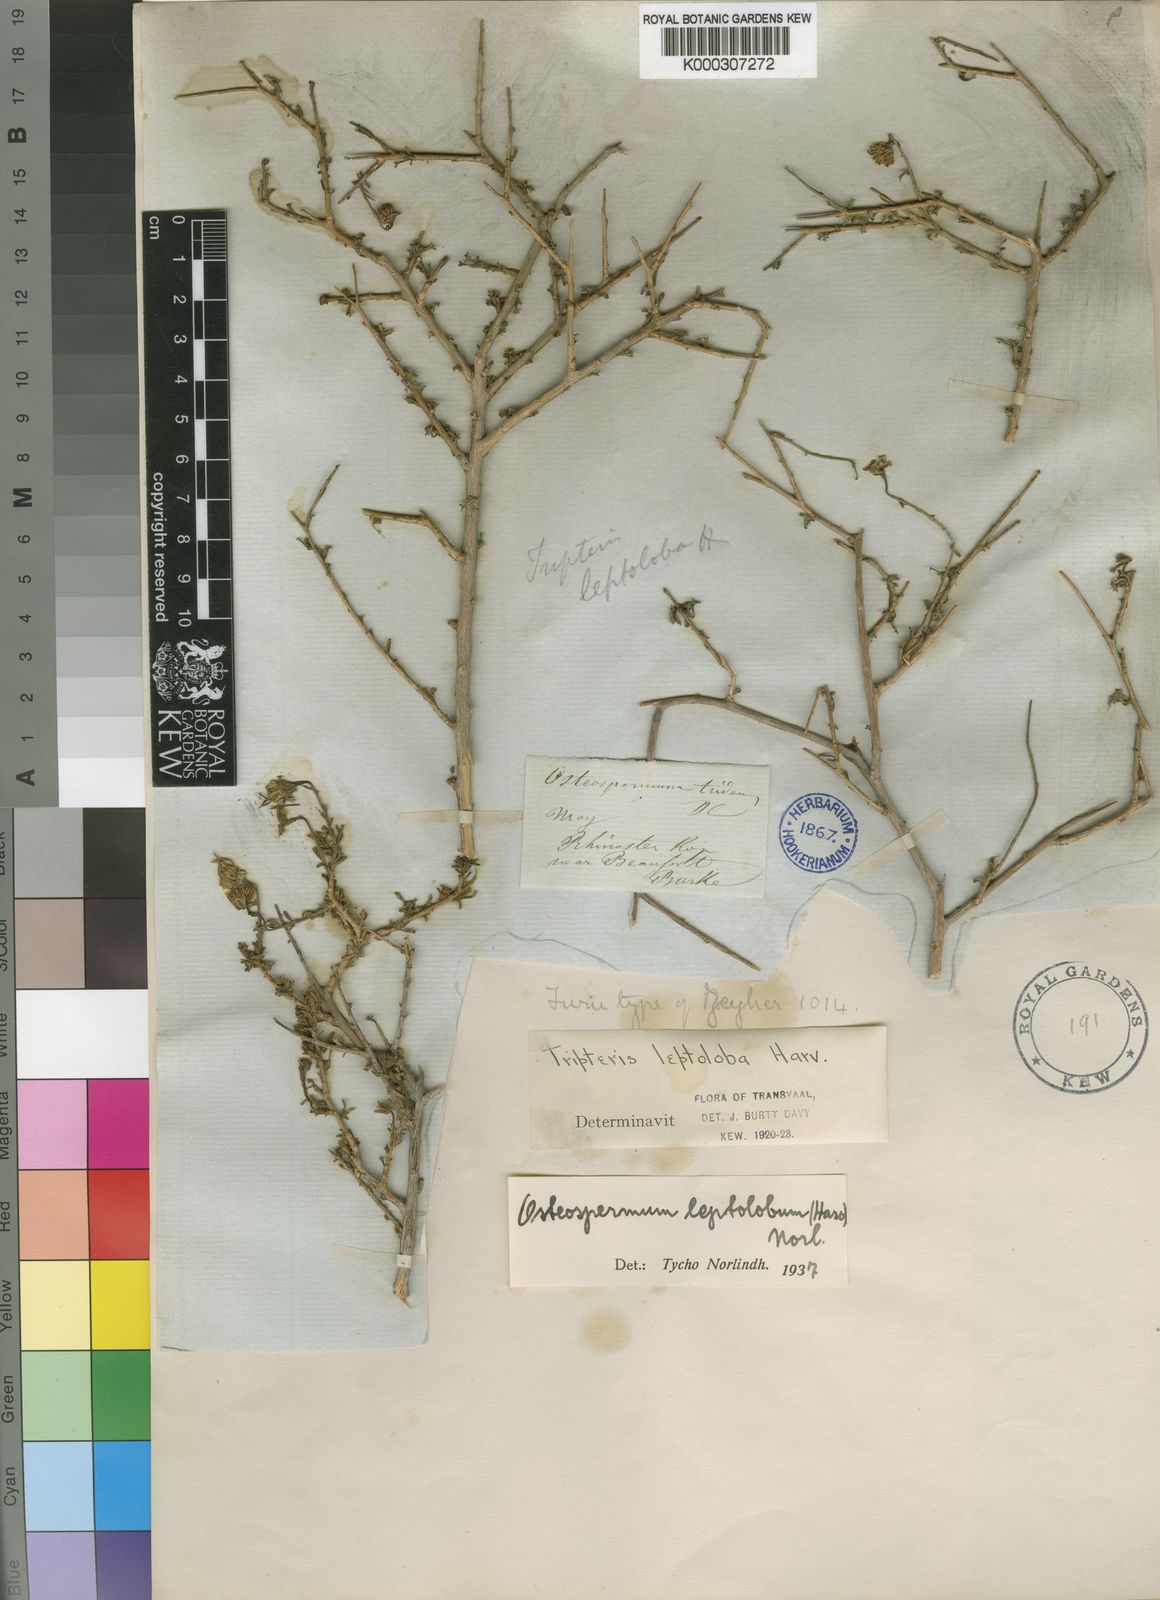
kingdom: Plantae
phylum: Tracheophyta
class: Magnoliopsida
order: Asterales
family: Asteraceae
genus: Osteospermum
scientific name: Osteospermum leptolobum
